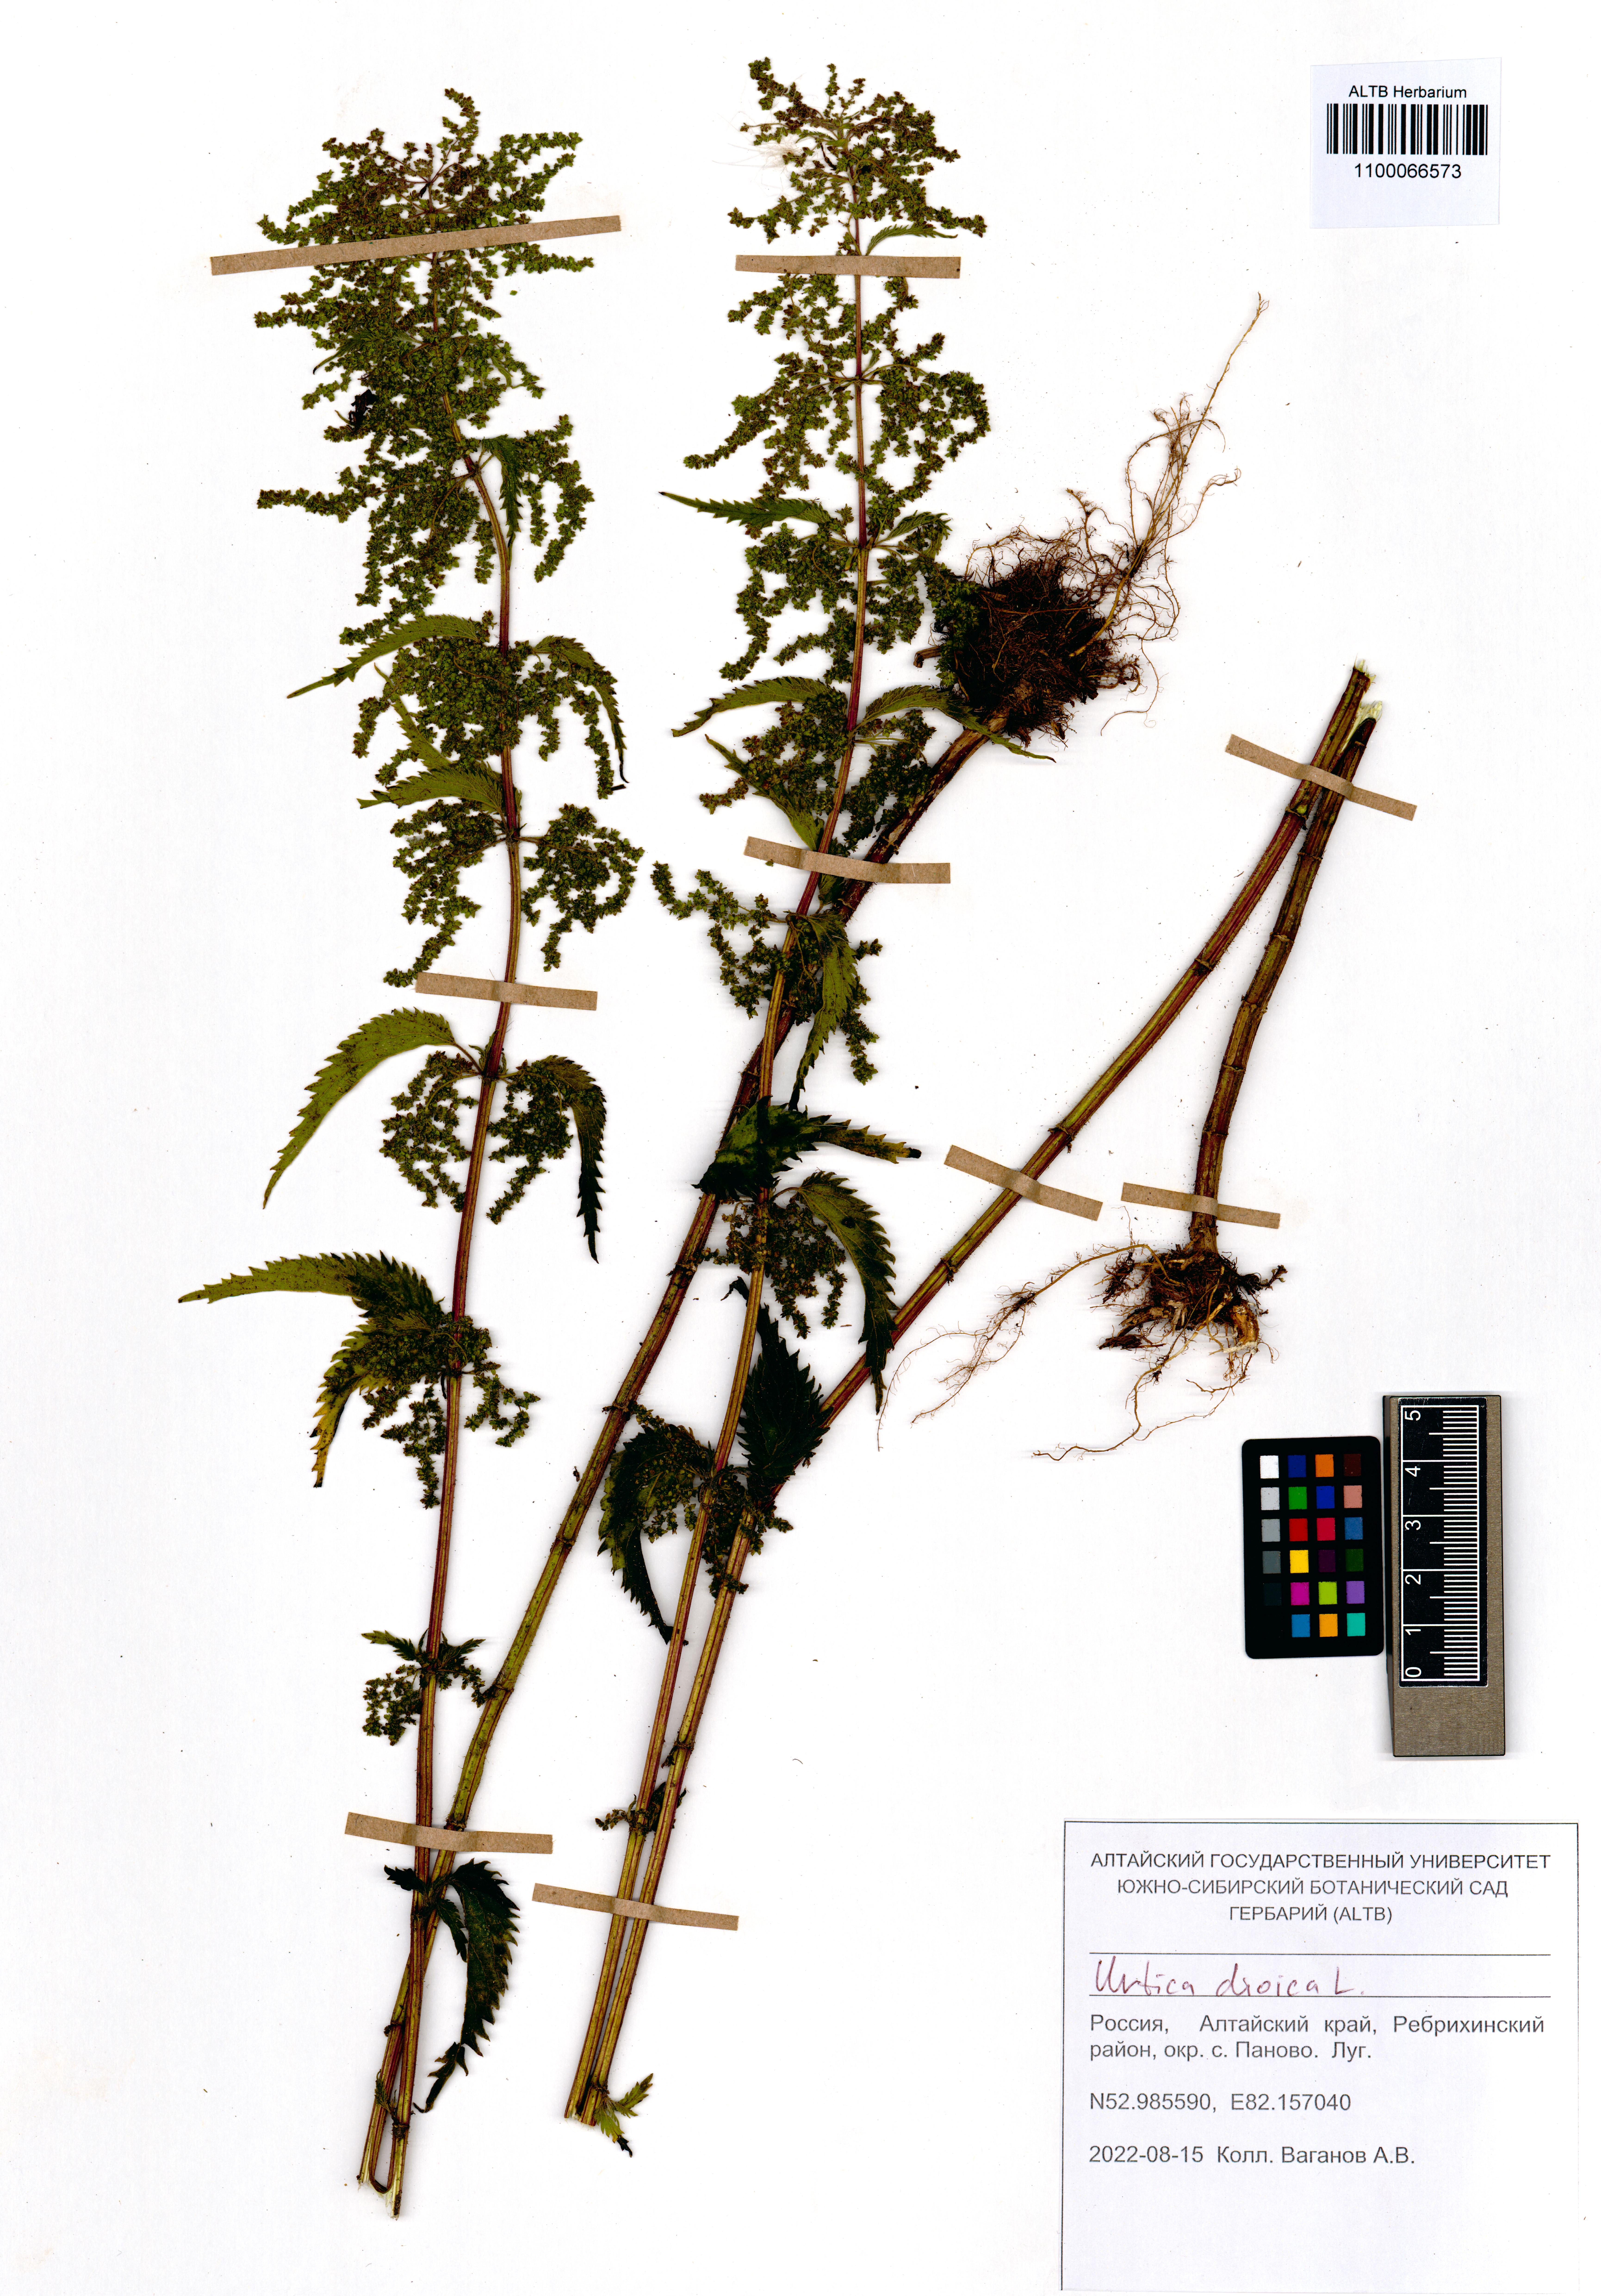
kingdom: Plantae
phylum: Tracheophyta
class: Magnoliopsida
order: Rosales
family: Urticaceae
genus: Urtica
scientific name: Urtica dioica
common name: Common nettle
